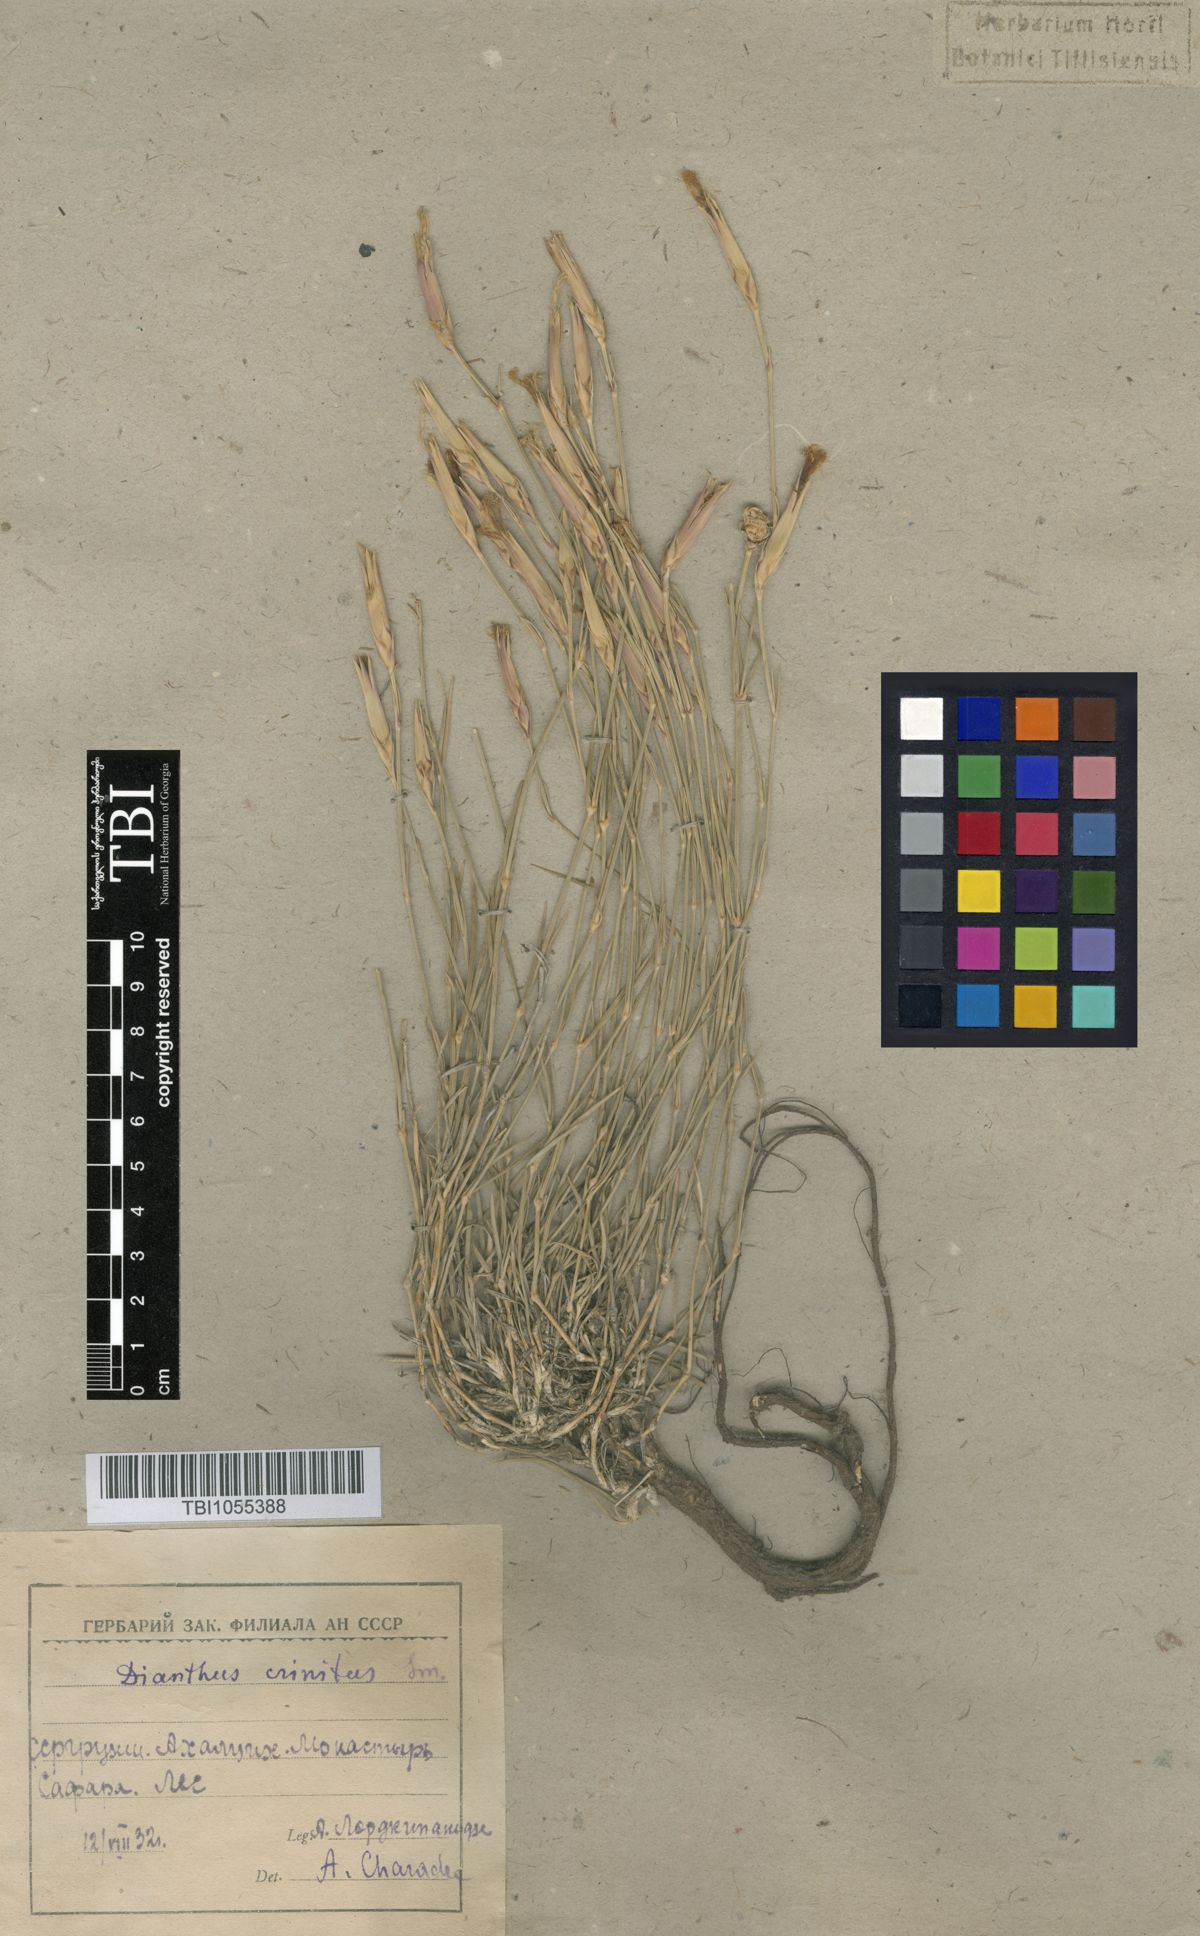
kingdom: Plantae
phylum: Tracheophyta
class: Magnoliopsida
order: Caryophyllales
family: Caryophyllaceae
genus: Dianthus
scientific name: Dianthus crinitus
